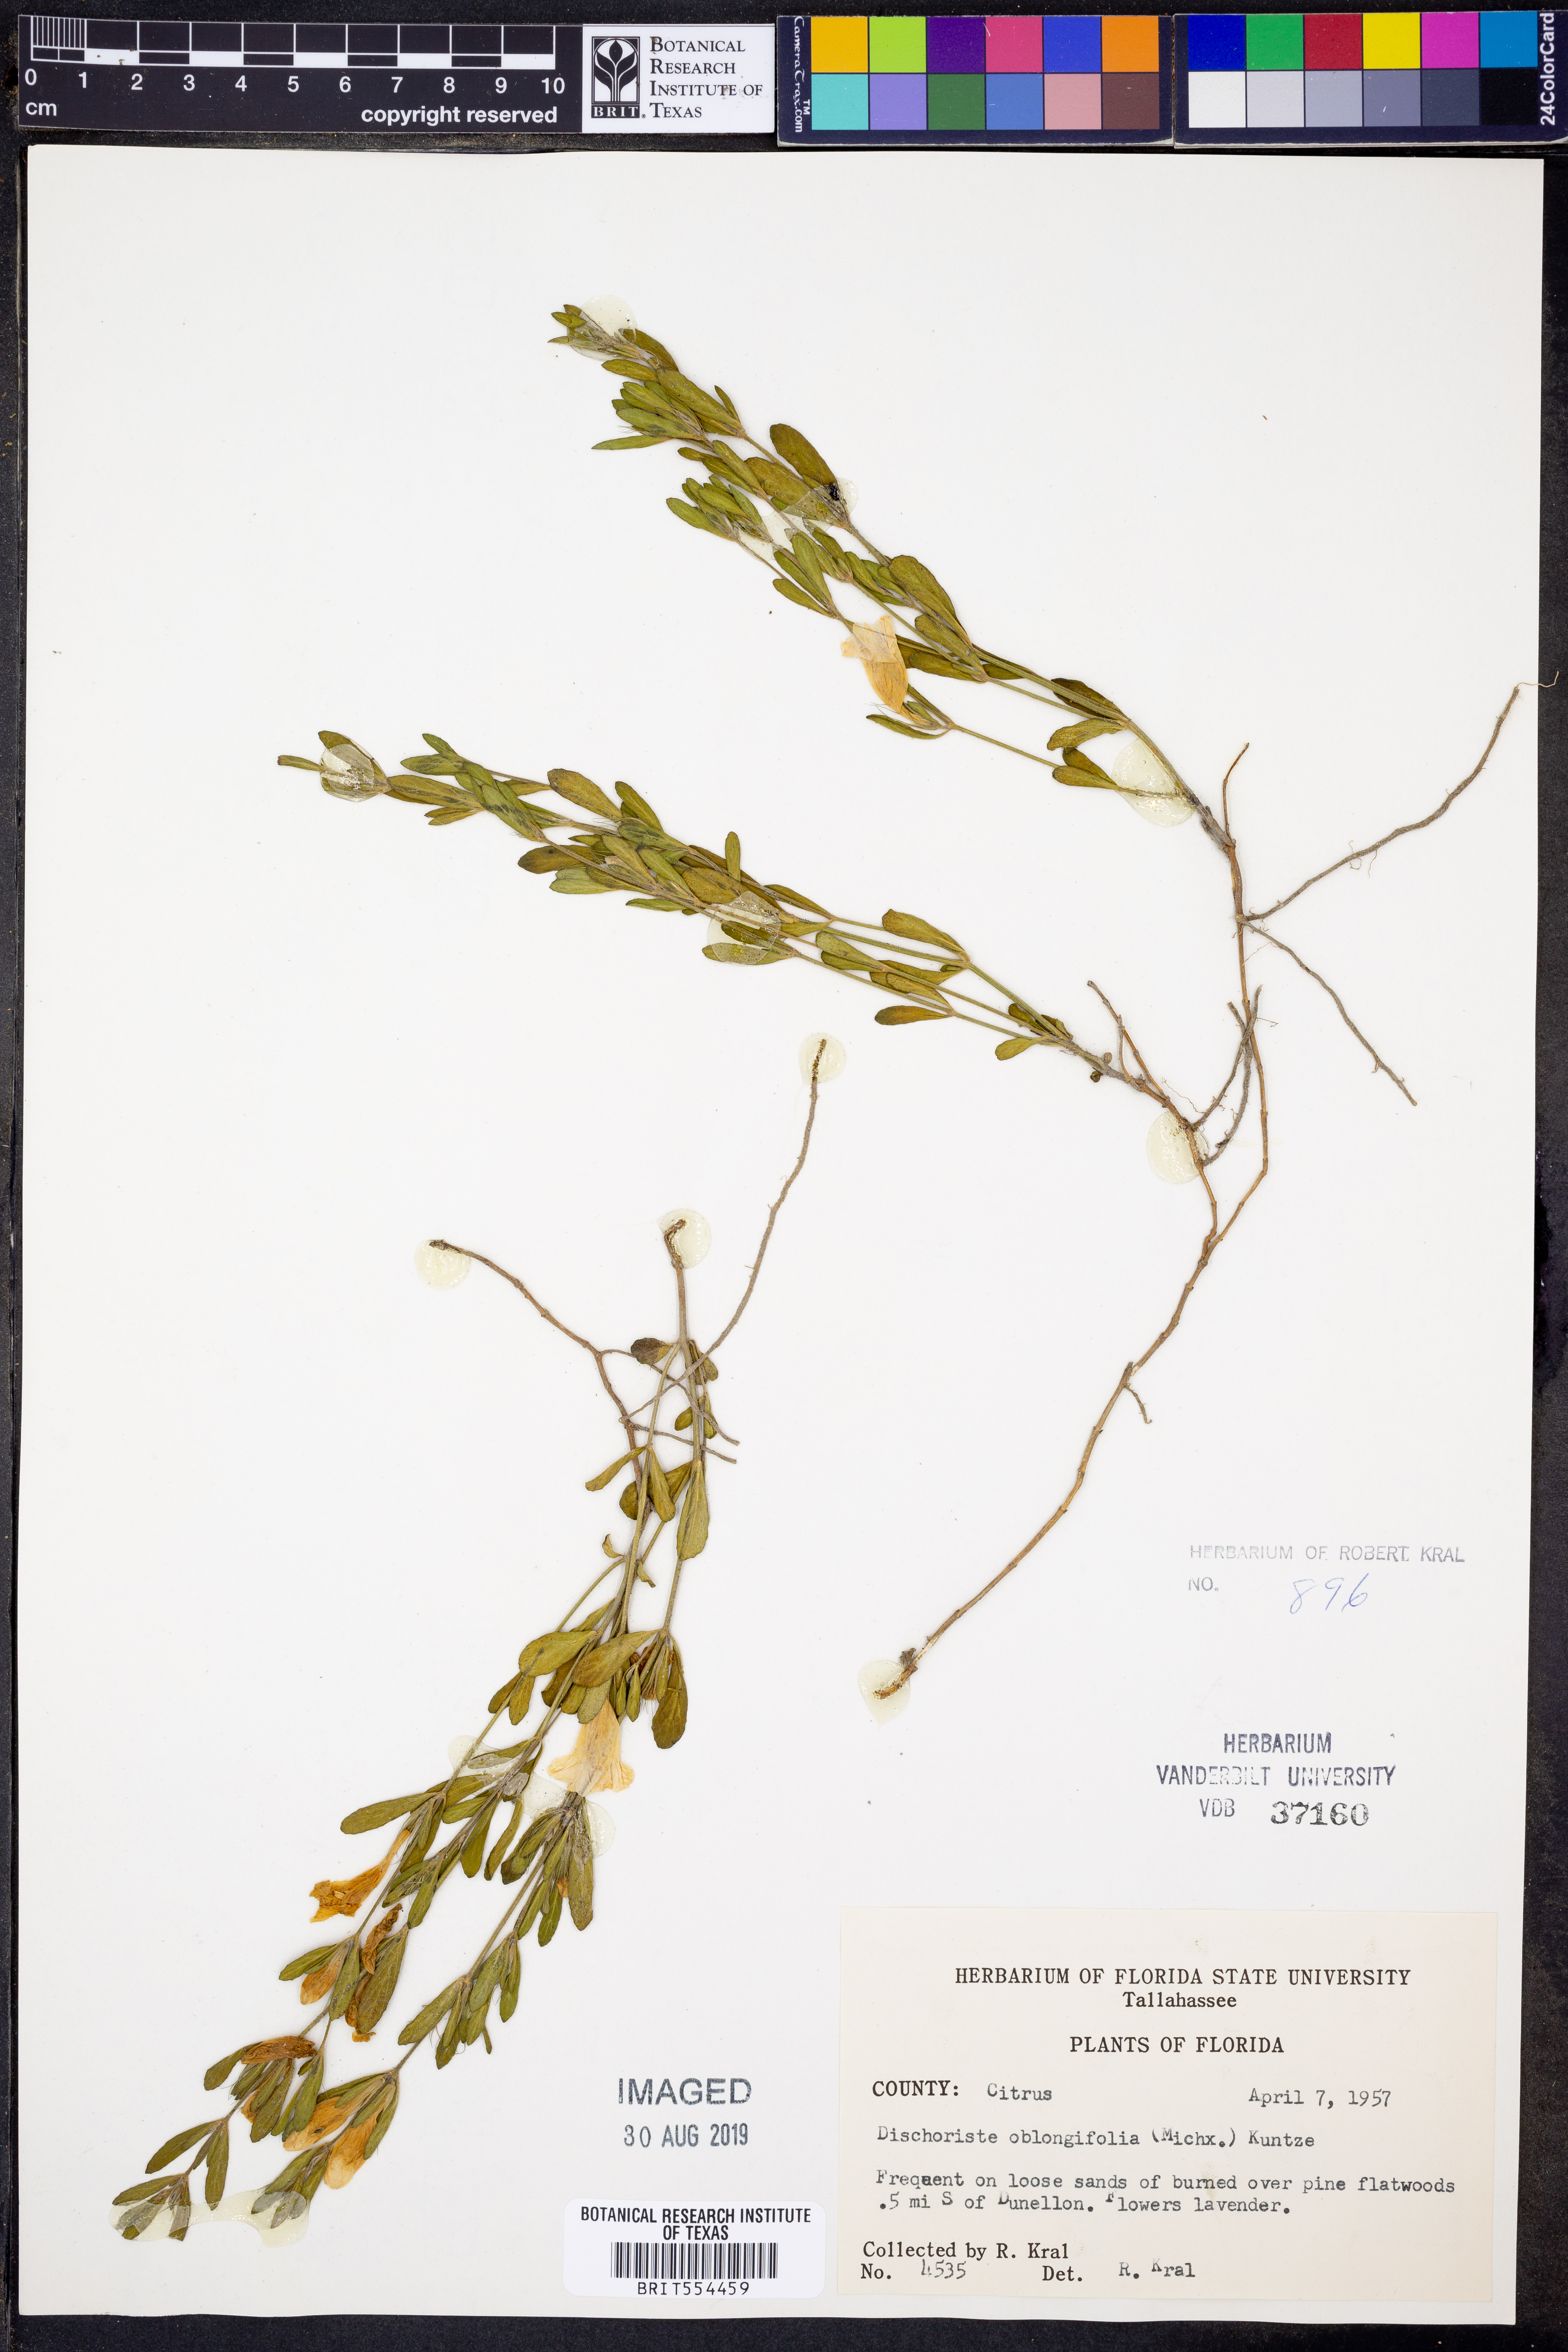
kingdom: Plantae
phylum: Tracheophyta
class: Magnoliopsida
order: Lamiales
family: Acanthaceae
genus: Dyschoriste
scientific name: Dyschoriste oblongifolia
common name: Blue twinflower
